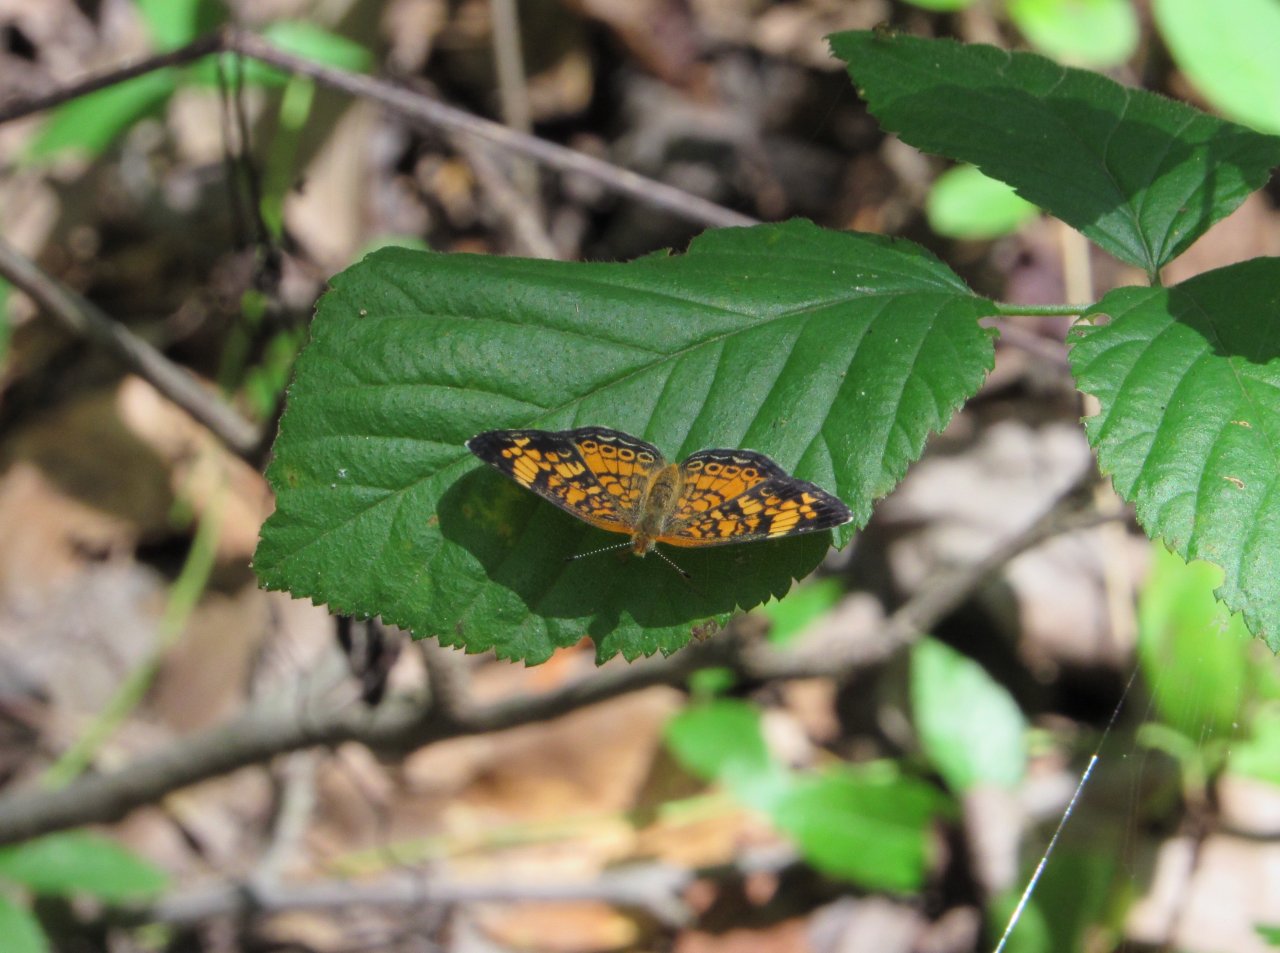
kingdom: Animalia
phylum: Arthropoda
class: Insecta
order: Lepidoptera
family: Nymphalidae
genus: Phyciodes
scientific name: Phyciodes tharos
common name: Pearl Crescent
